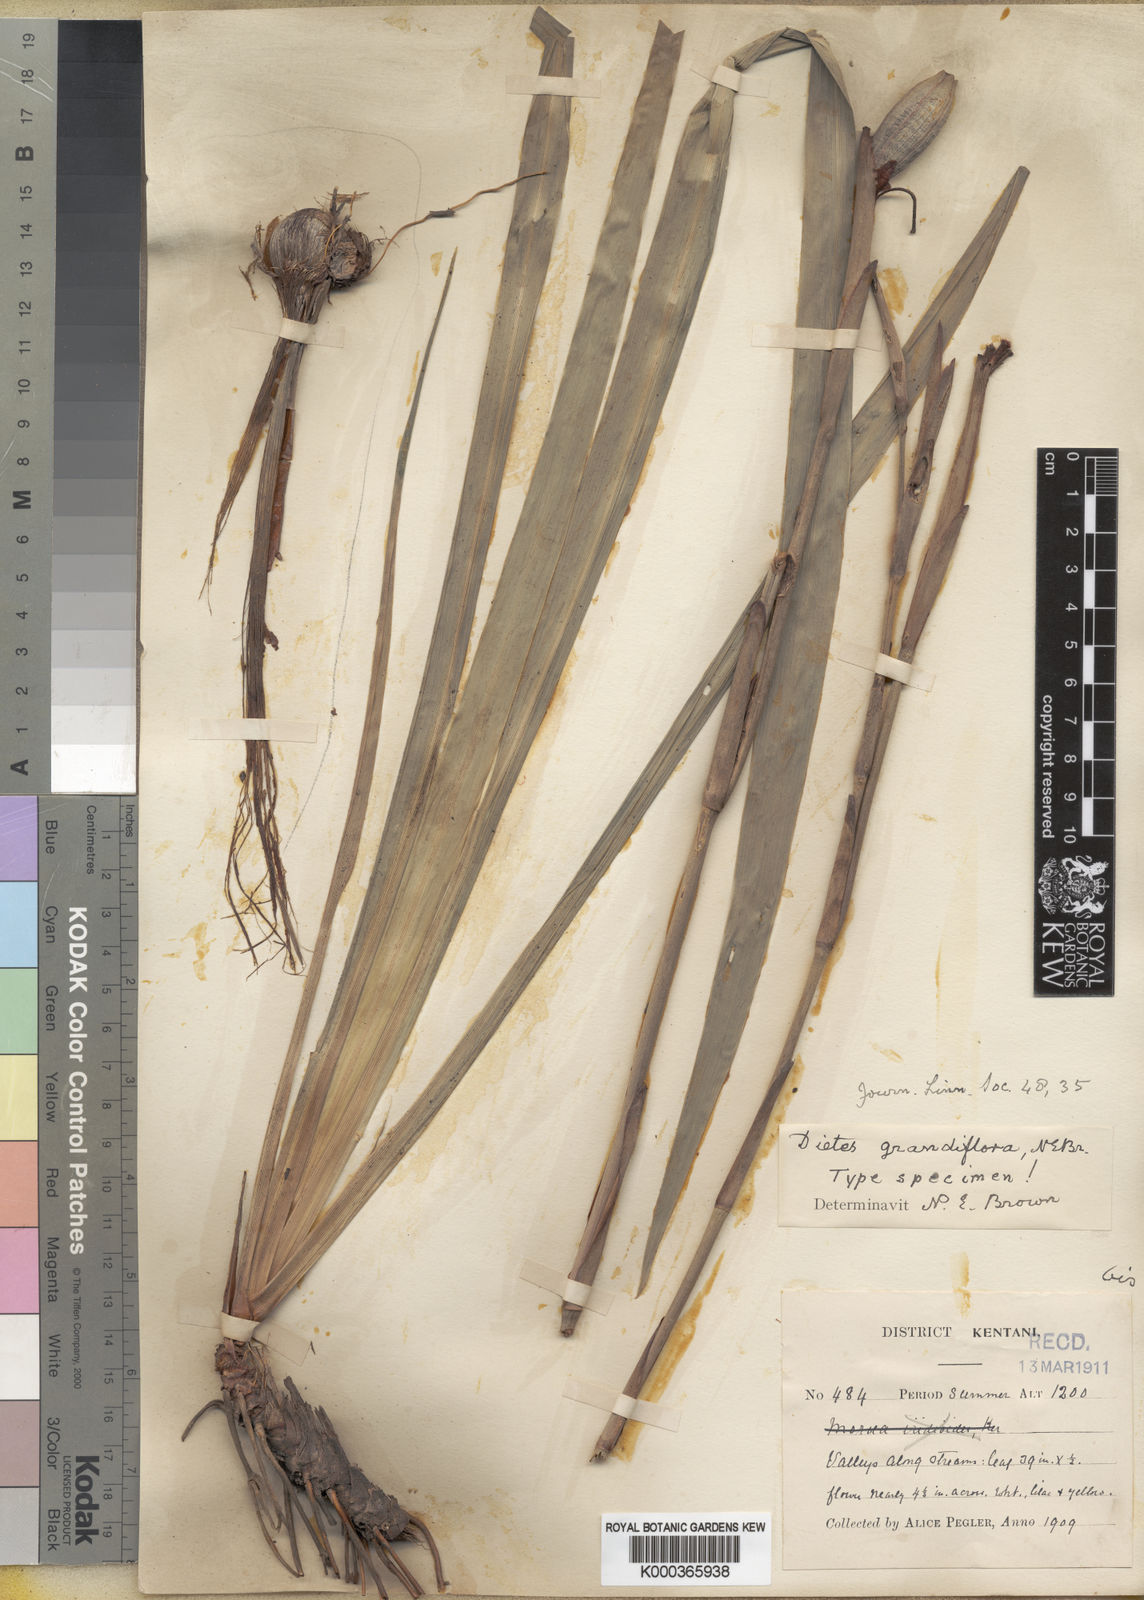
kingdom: Plantae
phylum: Tracheophyta
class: Liliopsida
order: Asparagales
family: Iridaceae
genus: Dietes
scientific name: Dietes grandiflora
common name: Wild iris
